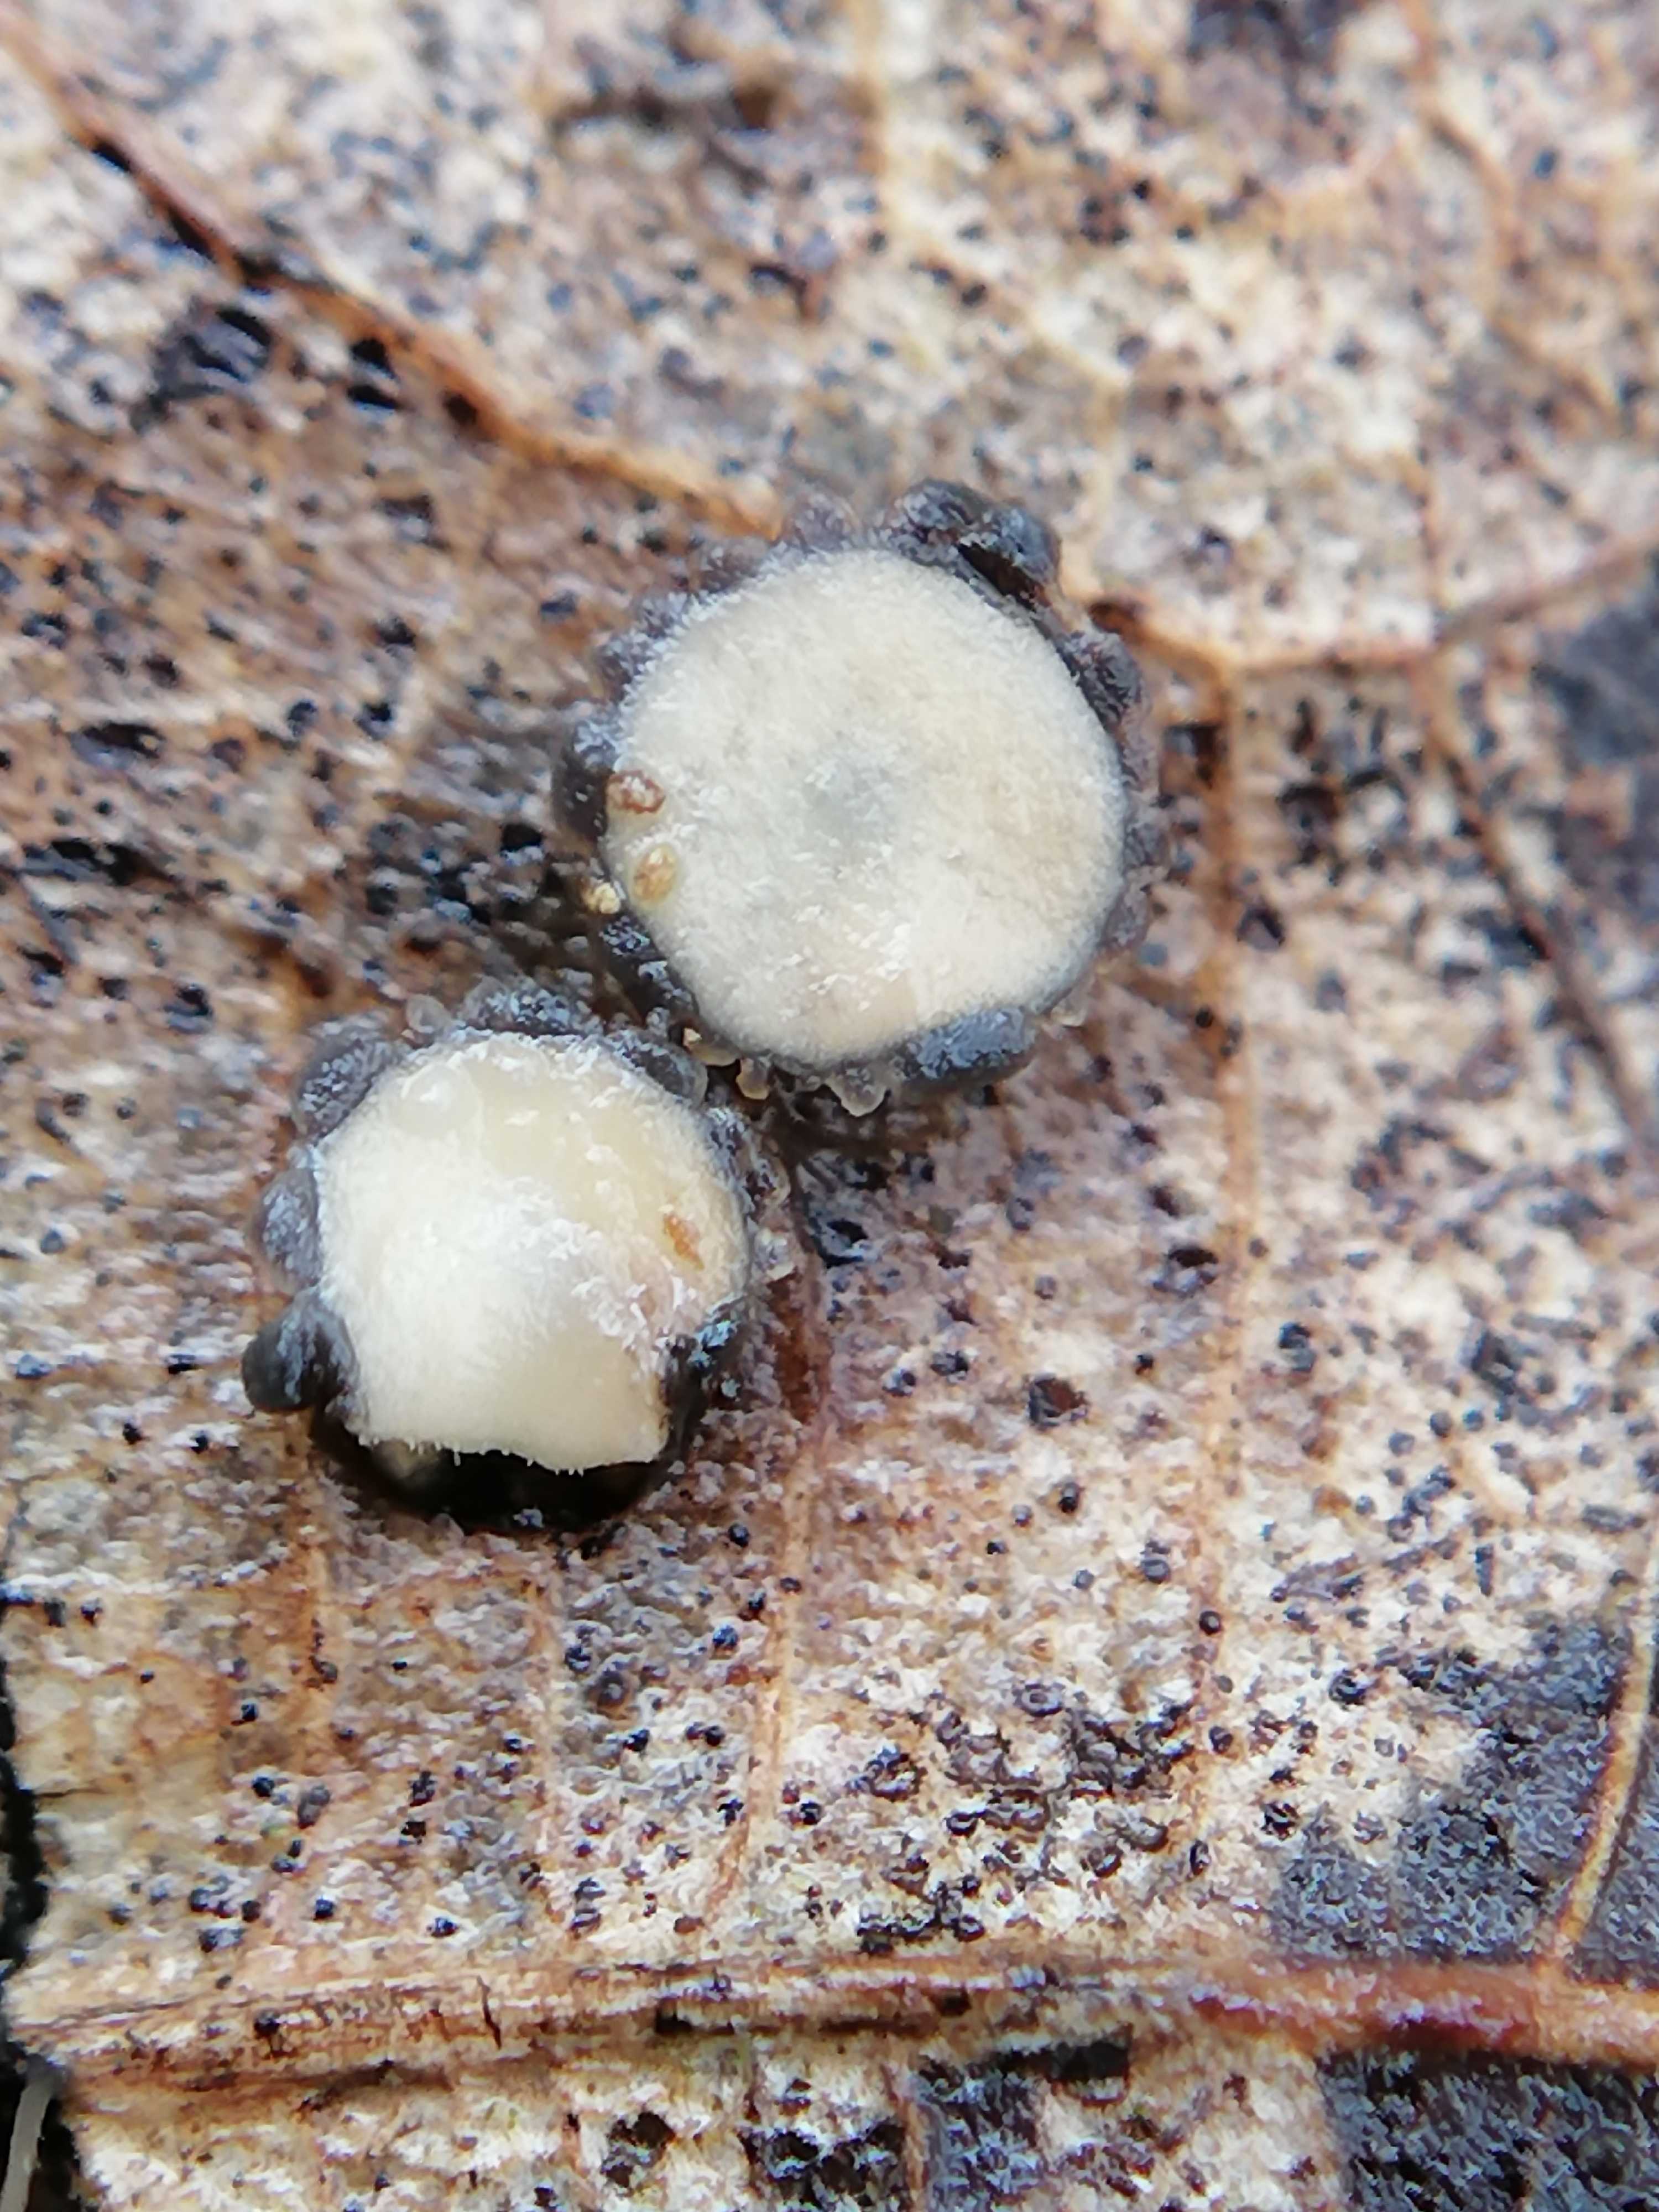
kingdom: Fungi
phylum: Ascomycota
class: Leotiomycetes
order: Rhytismatales
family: Rhytismataceae
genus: Coccomyces
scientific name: Coccomyces tumidus
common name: stor tandskive
